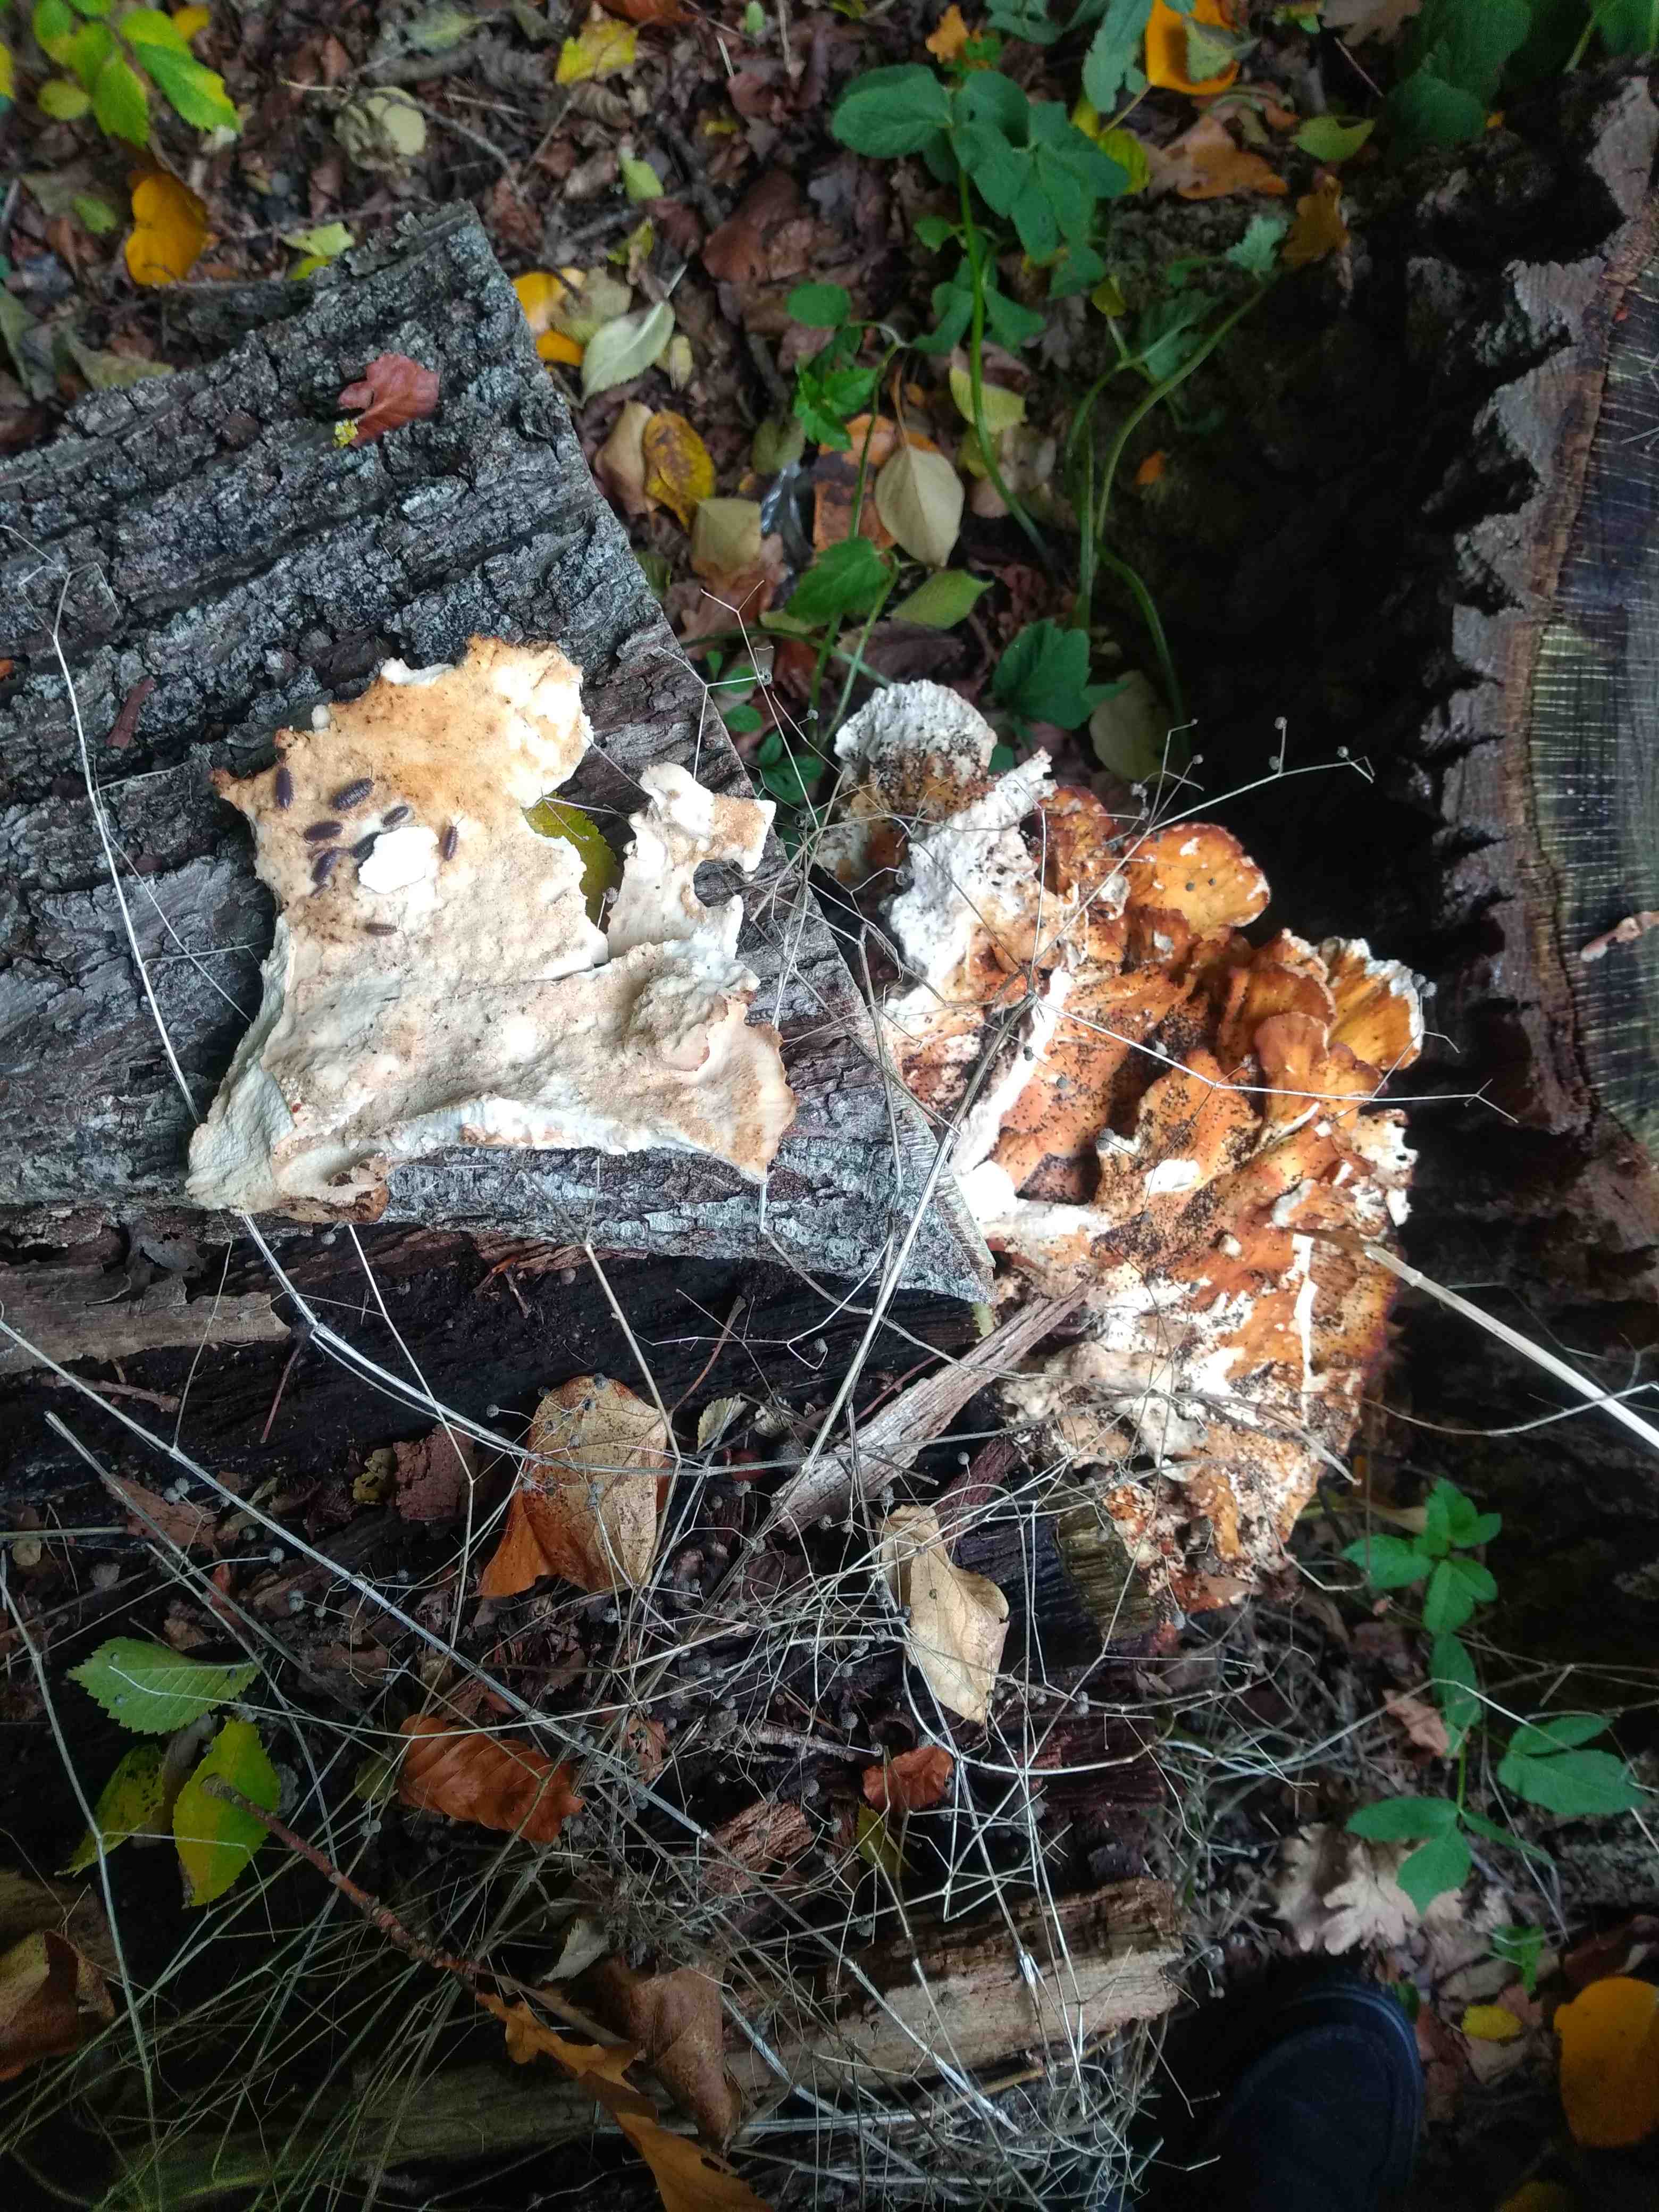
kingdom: Fungi
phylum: Basidiomycota
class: Agaricomycetes
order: Polyporales
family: Laetiporaceae
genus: Laetiporus
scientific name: Laetiporus sulphureus
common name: svovlporesvamp
